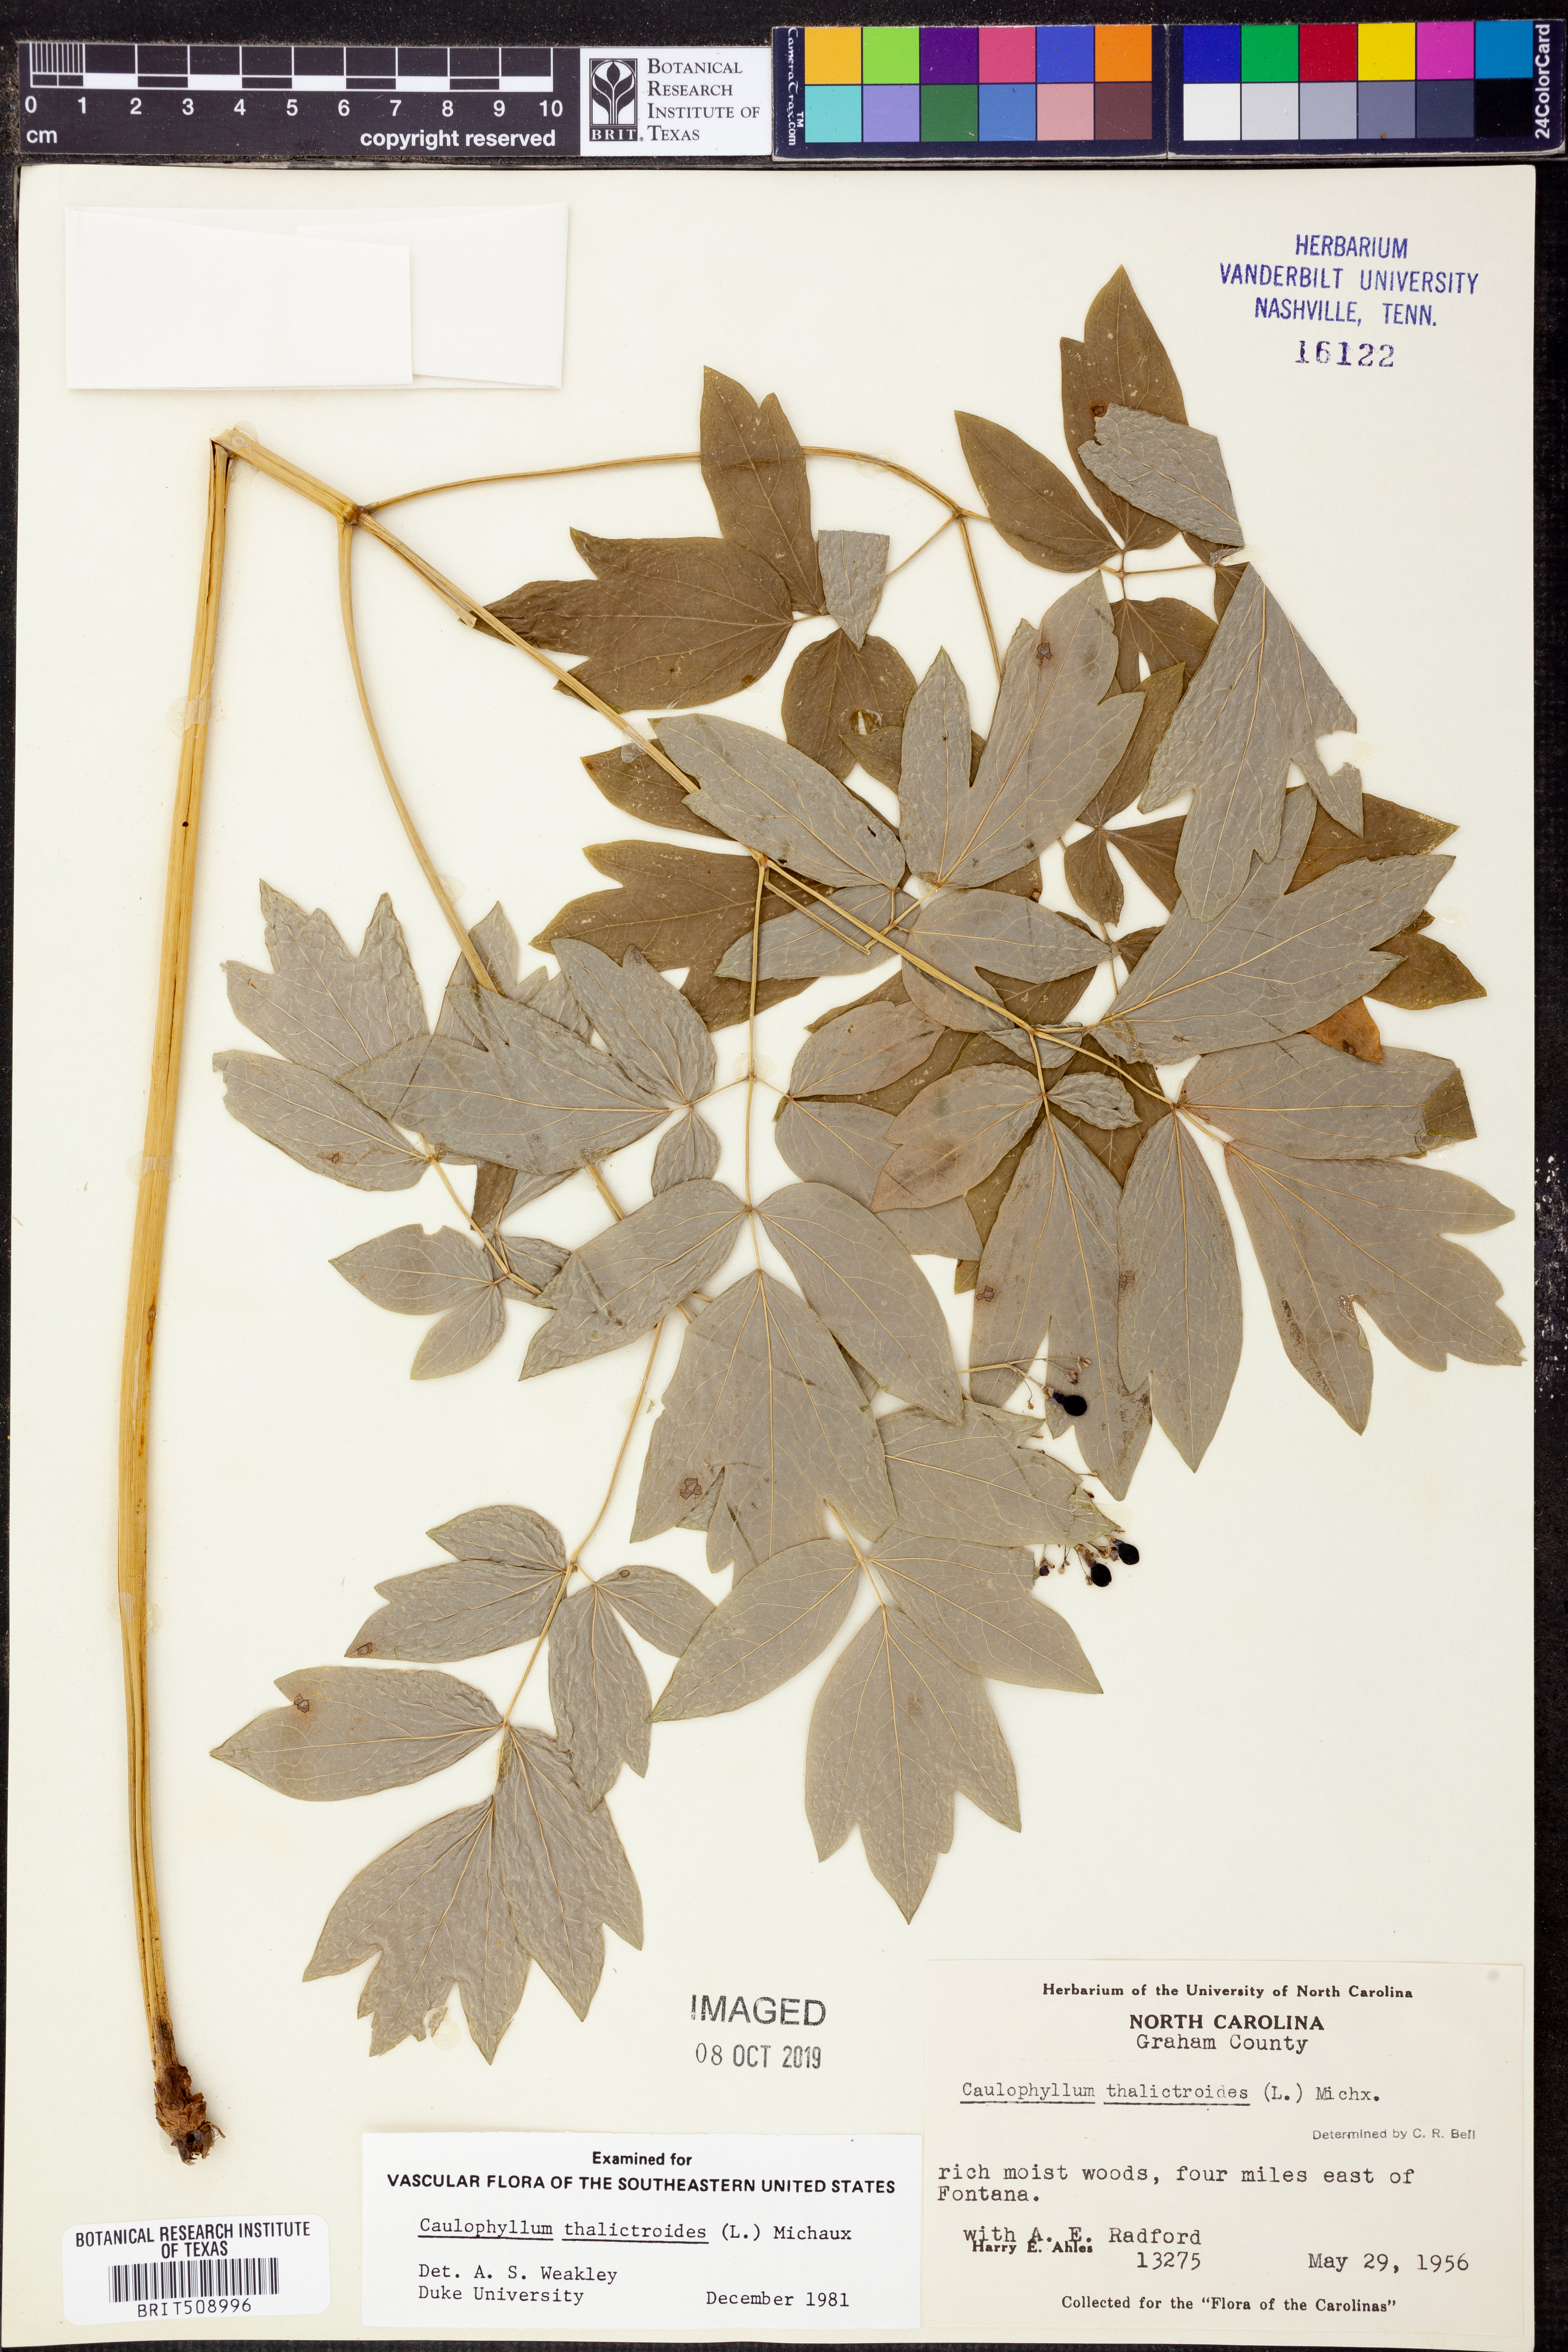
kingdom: Plantae
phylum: Tracheophyta
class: Magnoliopsida
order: Ranunculales
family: Berberidaceae
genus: Caulophyllum
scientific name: Caulophyllum thalictroides
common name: Blue cohosh
